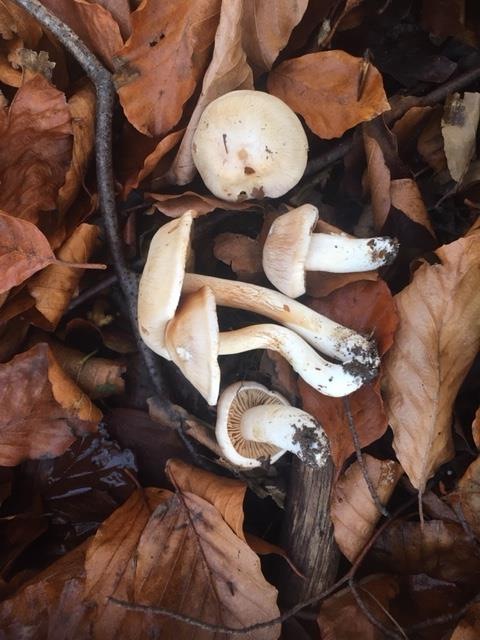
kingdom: Fungi
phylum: Basidiomycota
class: Agaricomycetes
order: Agaricales
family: Cortinariaceae
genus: Cortinarius
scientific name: Cortinarius turgidus
